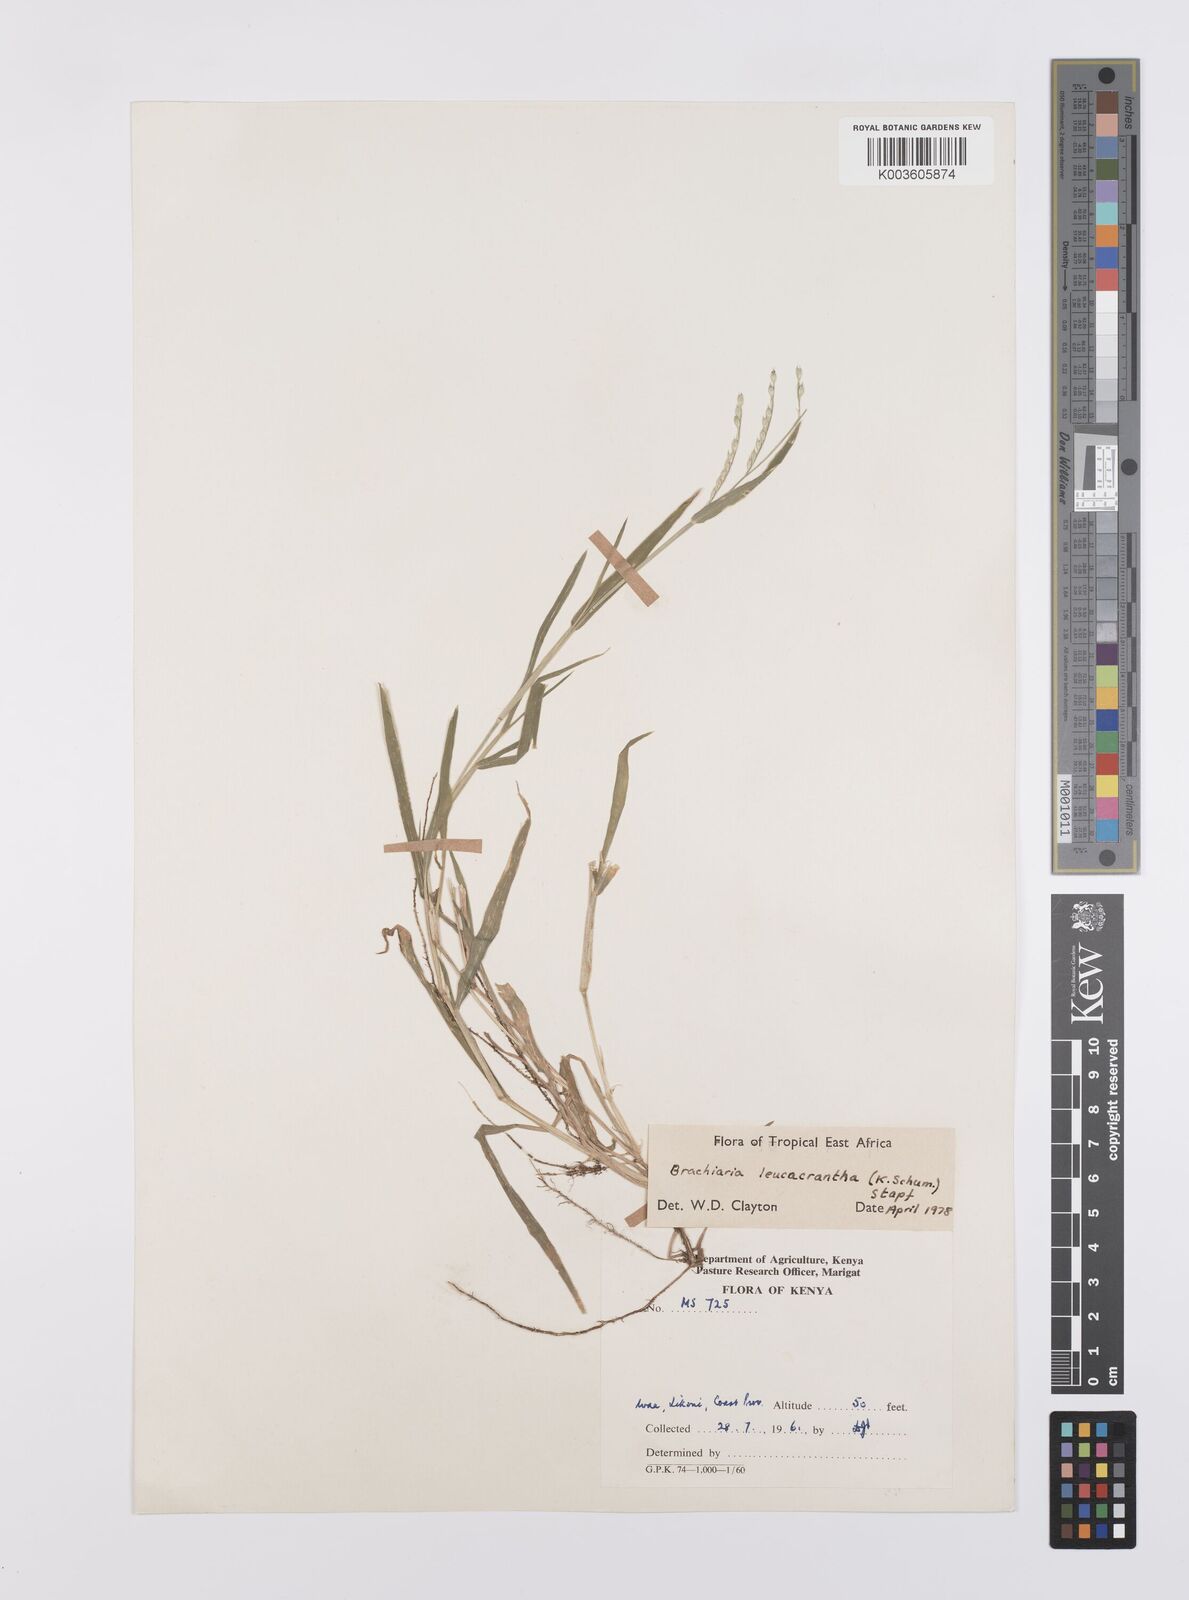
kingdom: Plantae
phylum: Tracheophyta
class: Liliopsida
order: Poales
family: Poaceae
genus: Urochloa
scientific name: Urochloa xantholeuca
